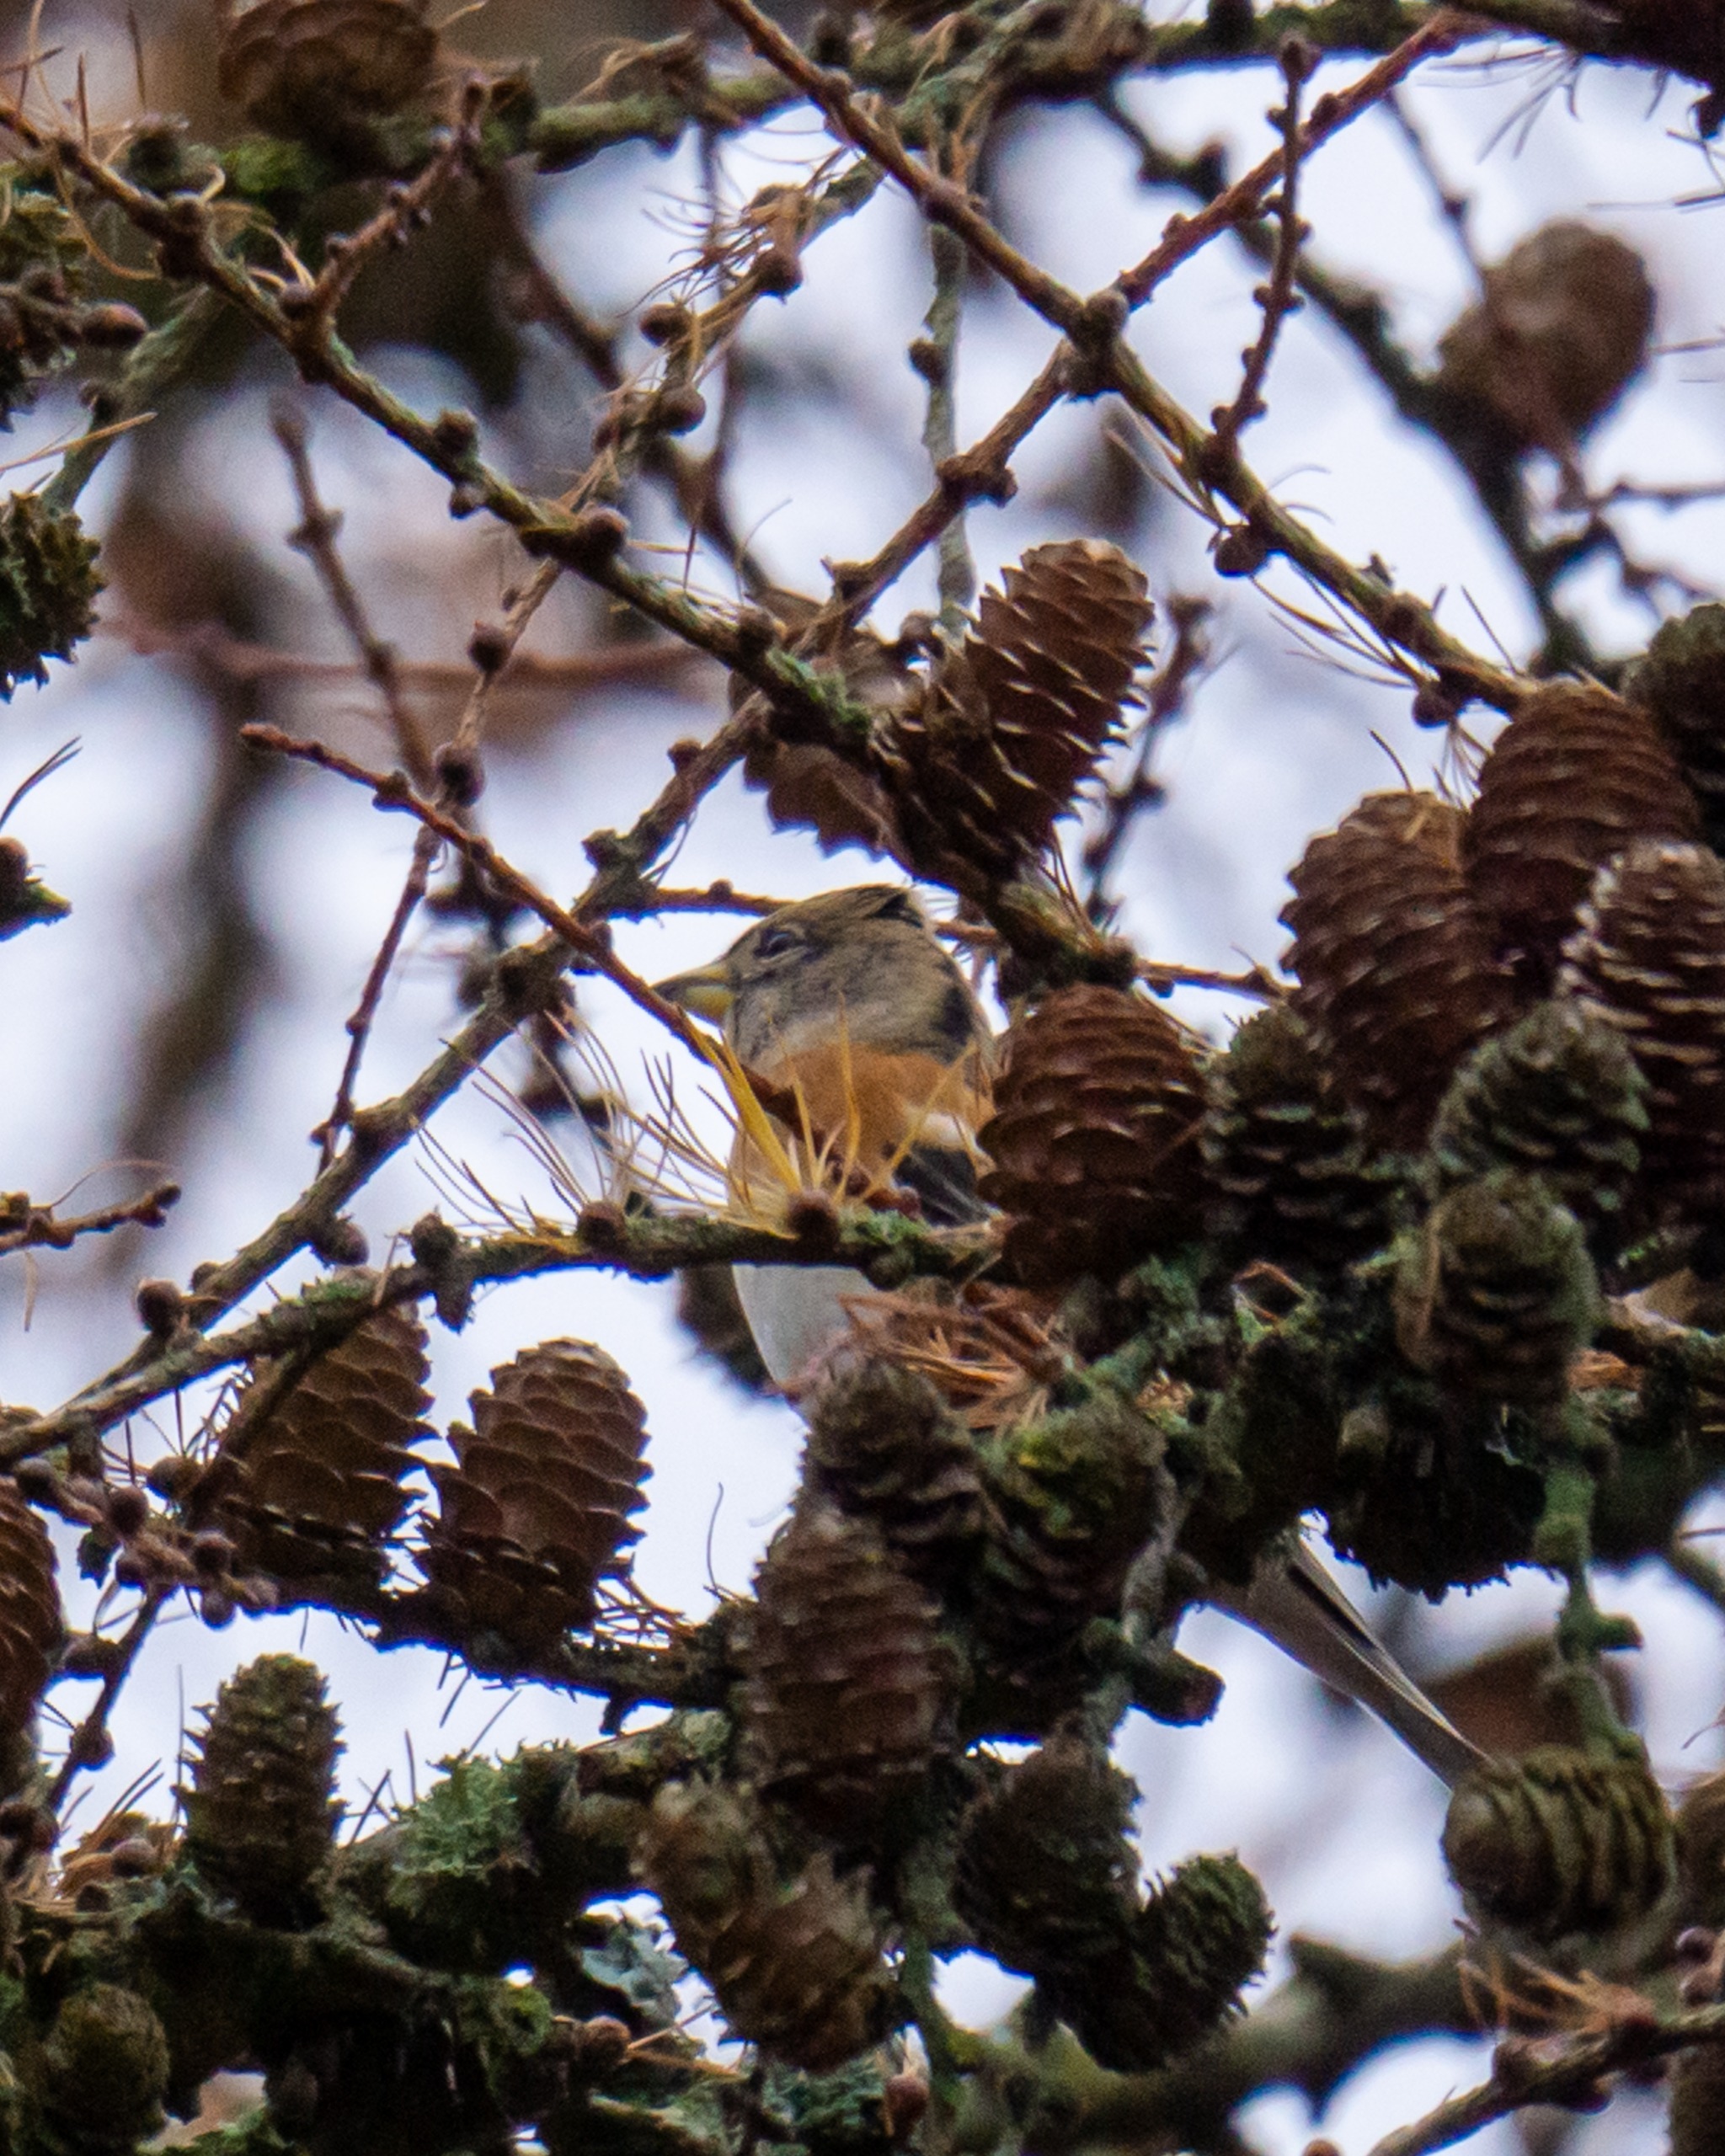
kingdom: Animalia
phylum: Chordata
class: Aves
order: Passeriformes
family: Fringillidae
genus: Fringilla
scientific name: Fringilla montifringilla
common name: Kvækerfinke
